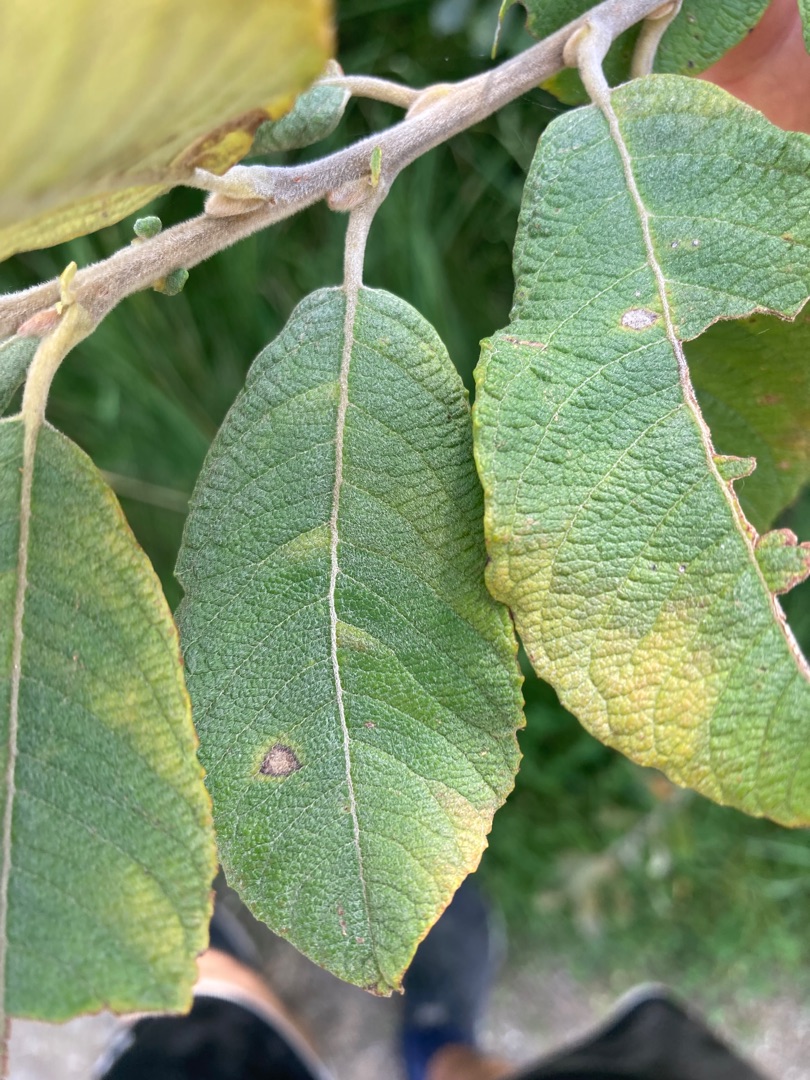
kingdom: Plantae
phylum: Tracheophyta
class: Magnoliopsida
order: Malpighiales
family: Salicaceae
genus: Salix
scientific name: Salix caprea
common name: Selje-pil
